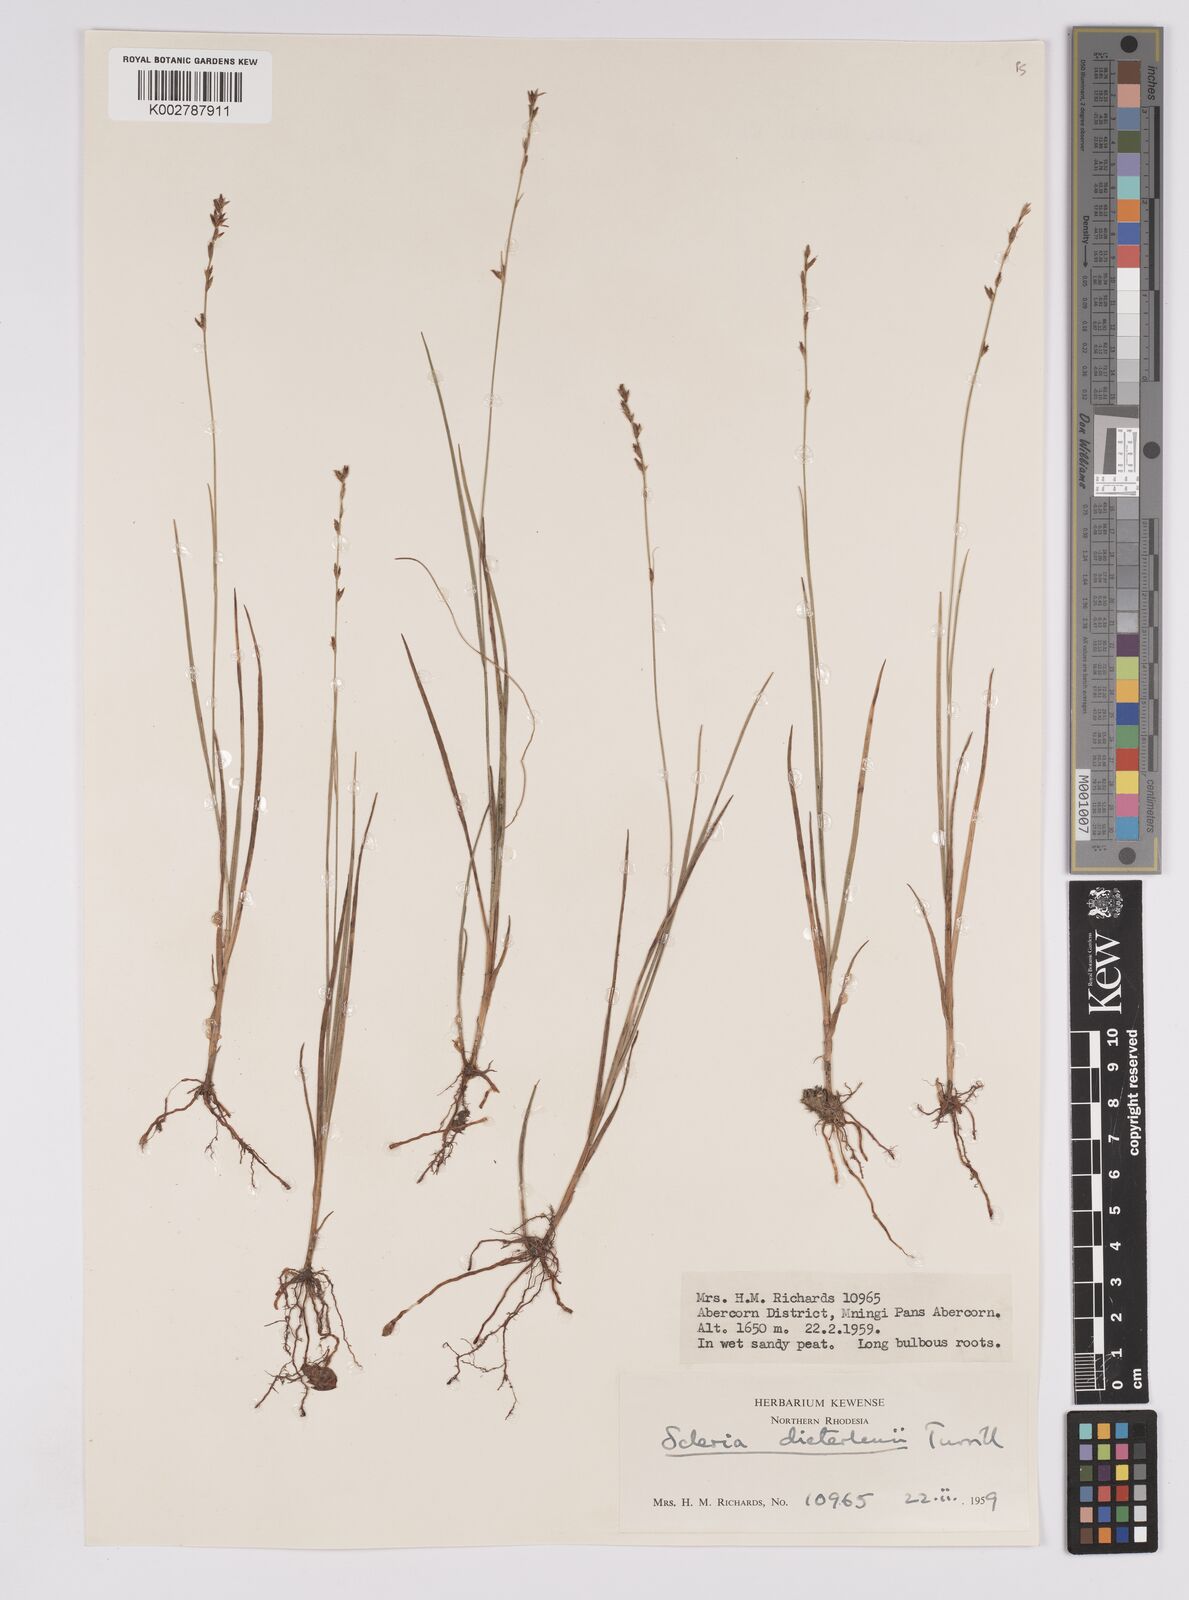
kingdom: Plantae
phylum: Tracheophyta
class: Liliopsida
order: Poales
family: Cyperaceae
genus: Scleria
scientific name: Scleria flexuosa
